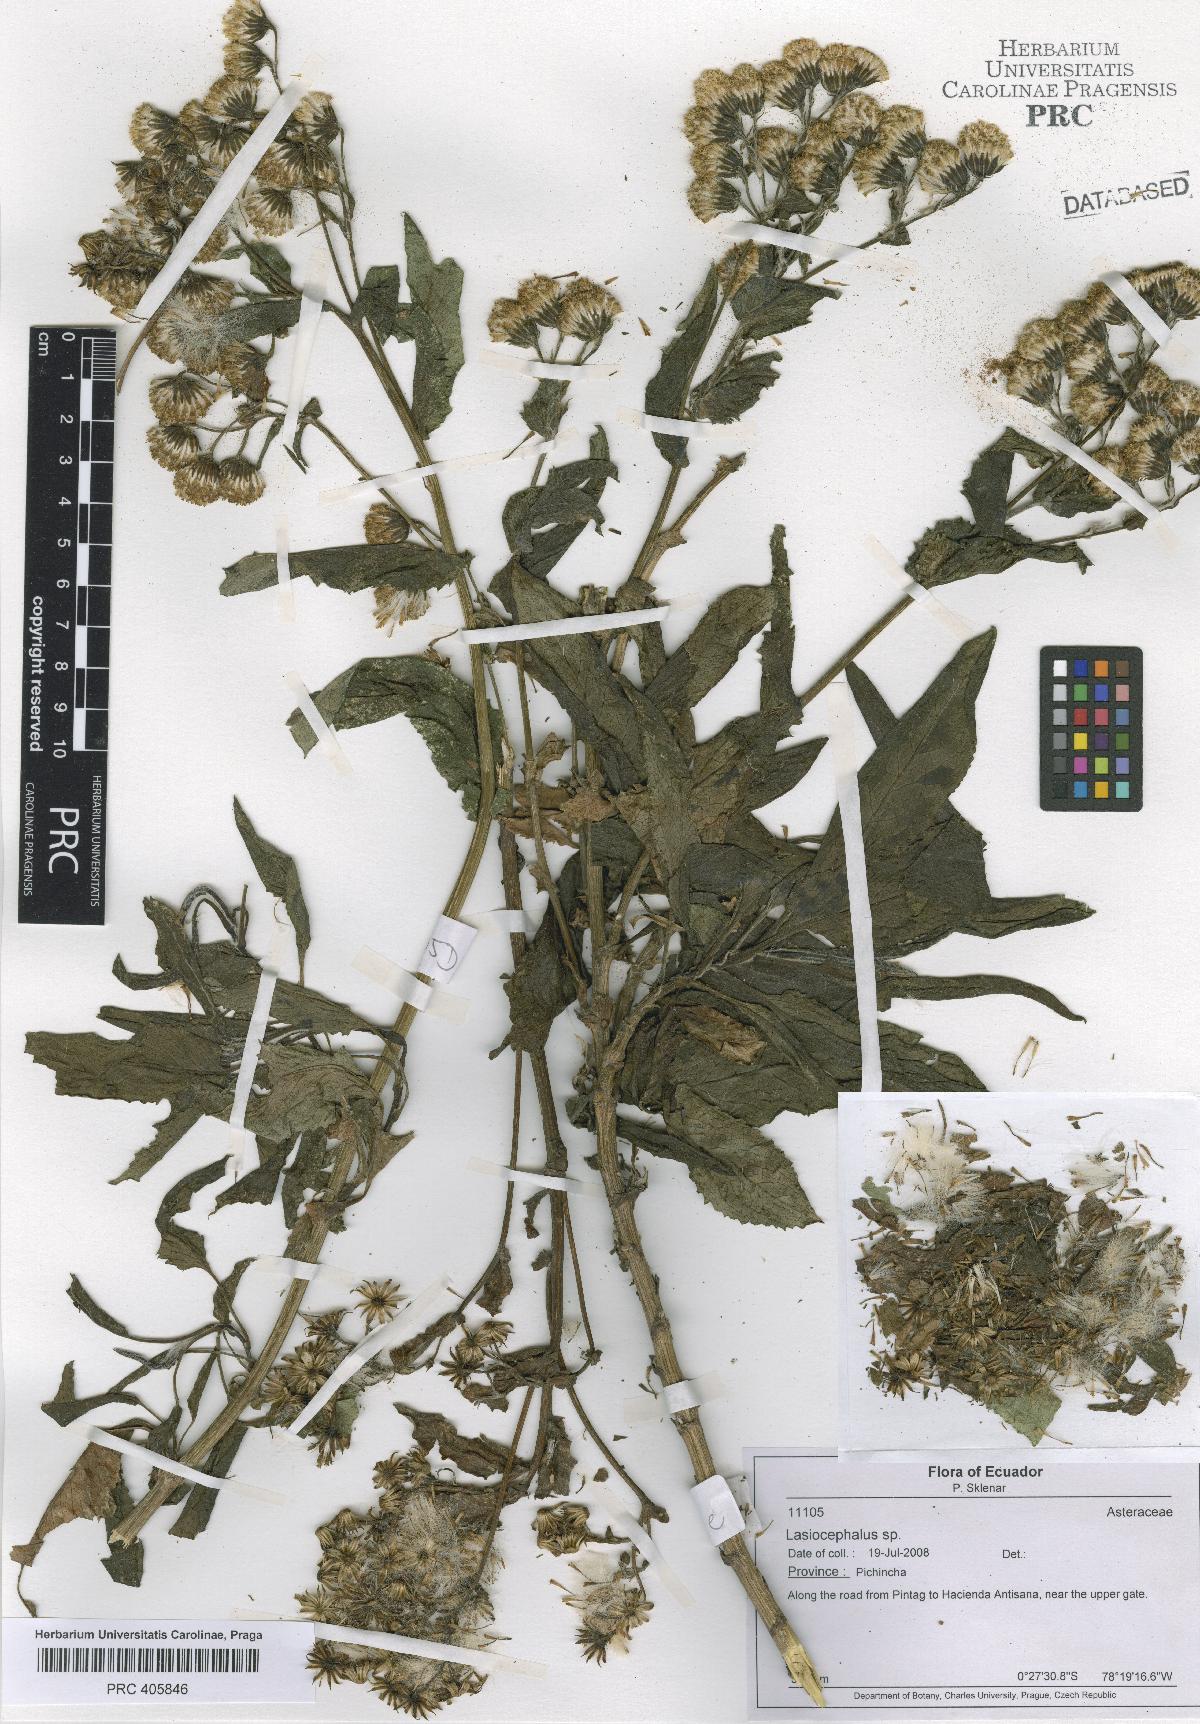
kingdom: Plantae
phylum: Tracheophyta
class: Magnoliopsida
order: Asterales
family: Asteraceae
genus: Lasiocephalus
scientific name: Lasiocephalus
